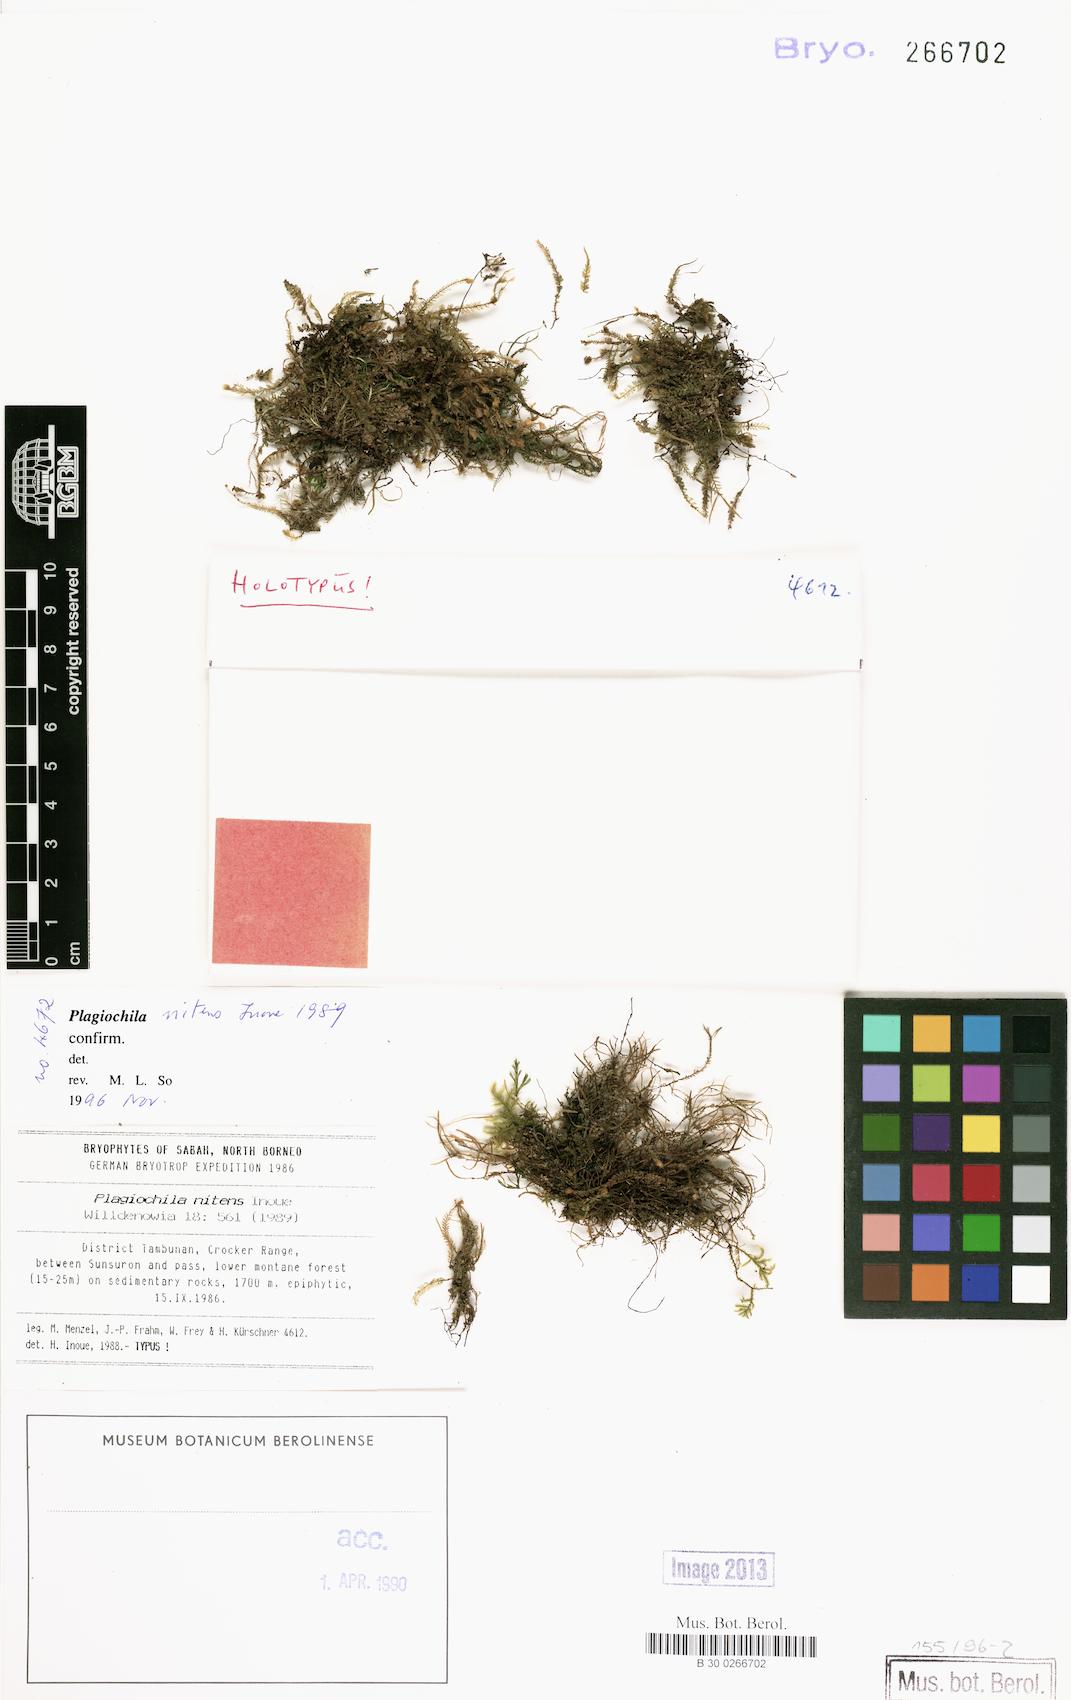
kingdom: Plantae
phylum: Marchantiophyta
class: Jungermanniopsida
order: Jungermanniales
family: Plagiochilaceae
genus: Plagiochila
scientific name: Plagiochila nitens
